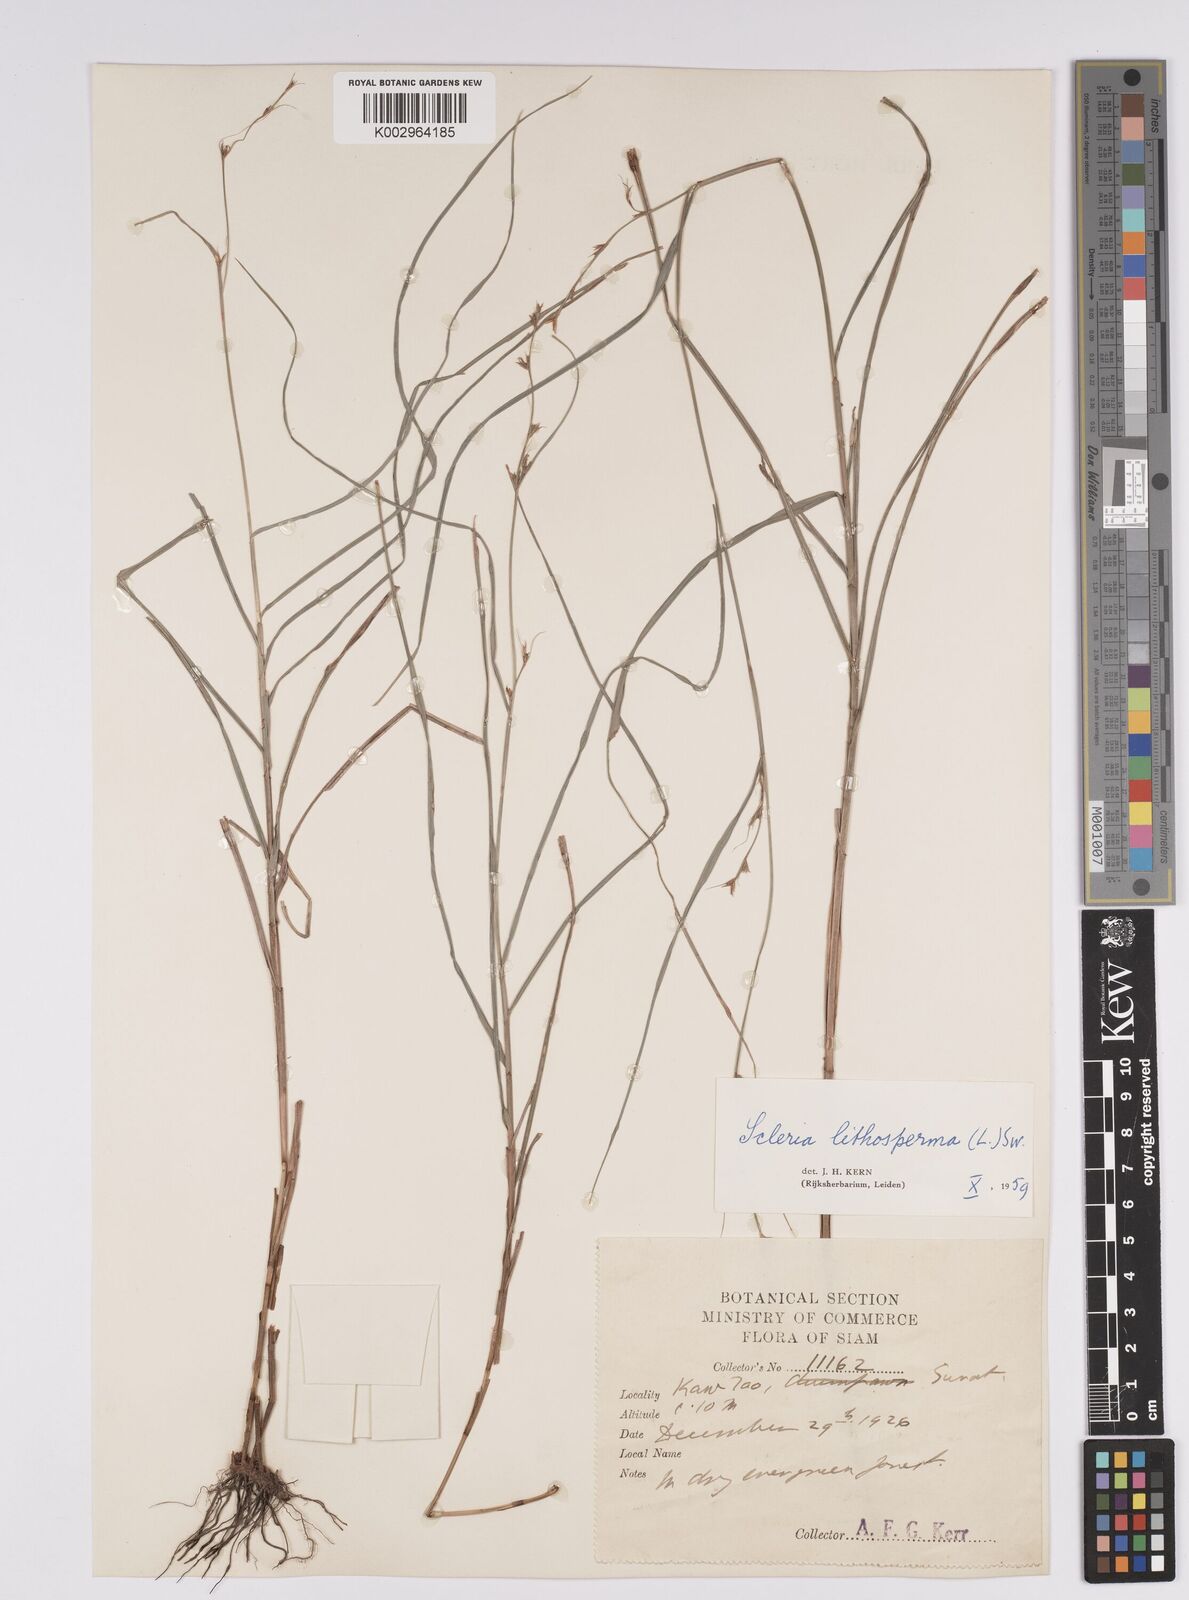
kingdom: Plantae
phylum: Tracheophyta
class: Liliopsida
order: Poales
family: Cyperaceae
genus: Scleria
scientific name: Scleria lithosperma
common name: Florida keys nut-rush
